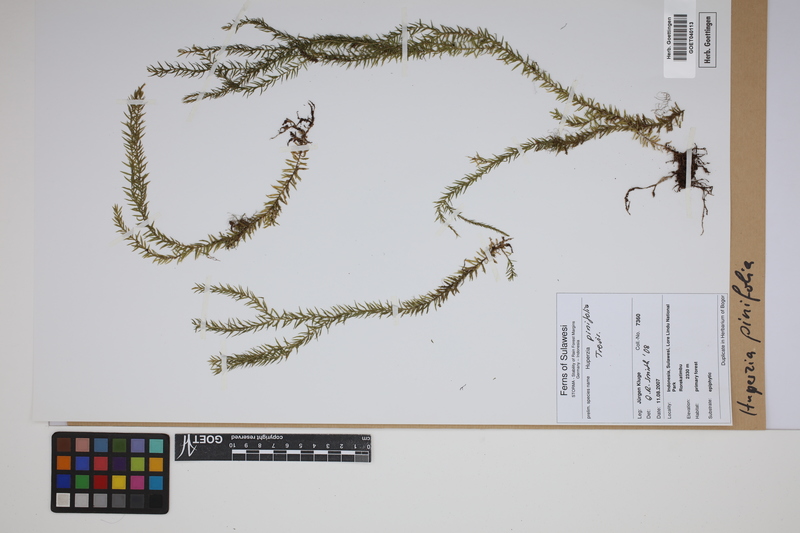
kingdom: Plantae
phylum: Tracheophyta
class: Lycopodiopsida
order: Lycopodiales
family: Lycopodiaceae
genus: Phlegmariurus
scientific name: Phlegmariurus pinifolius
